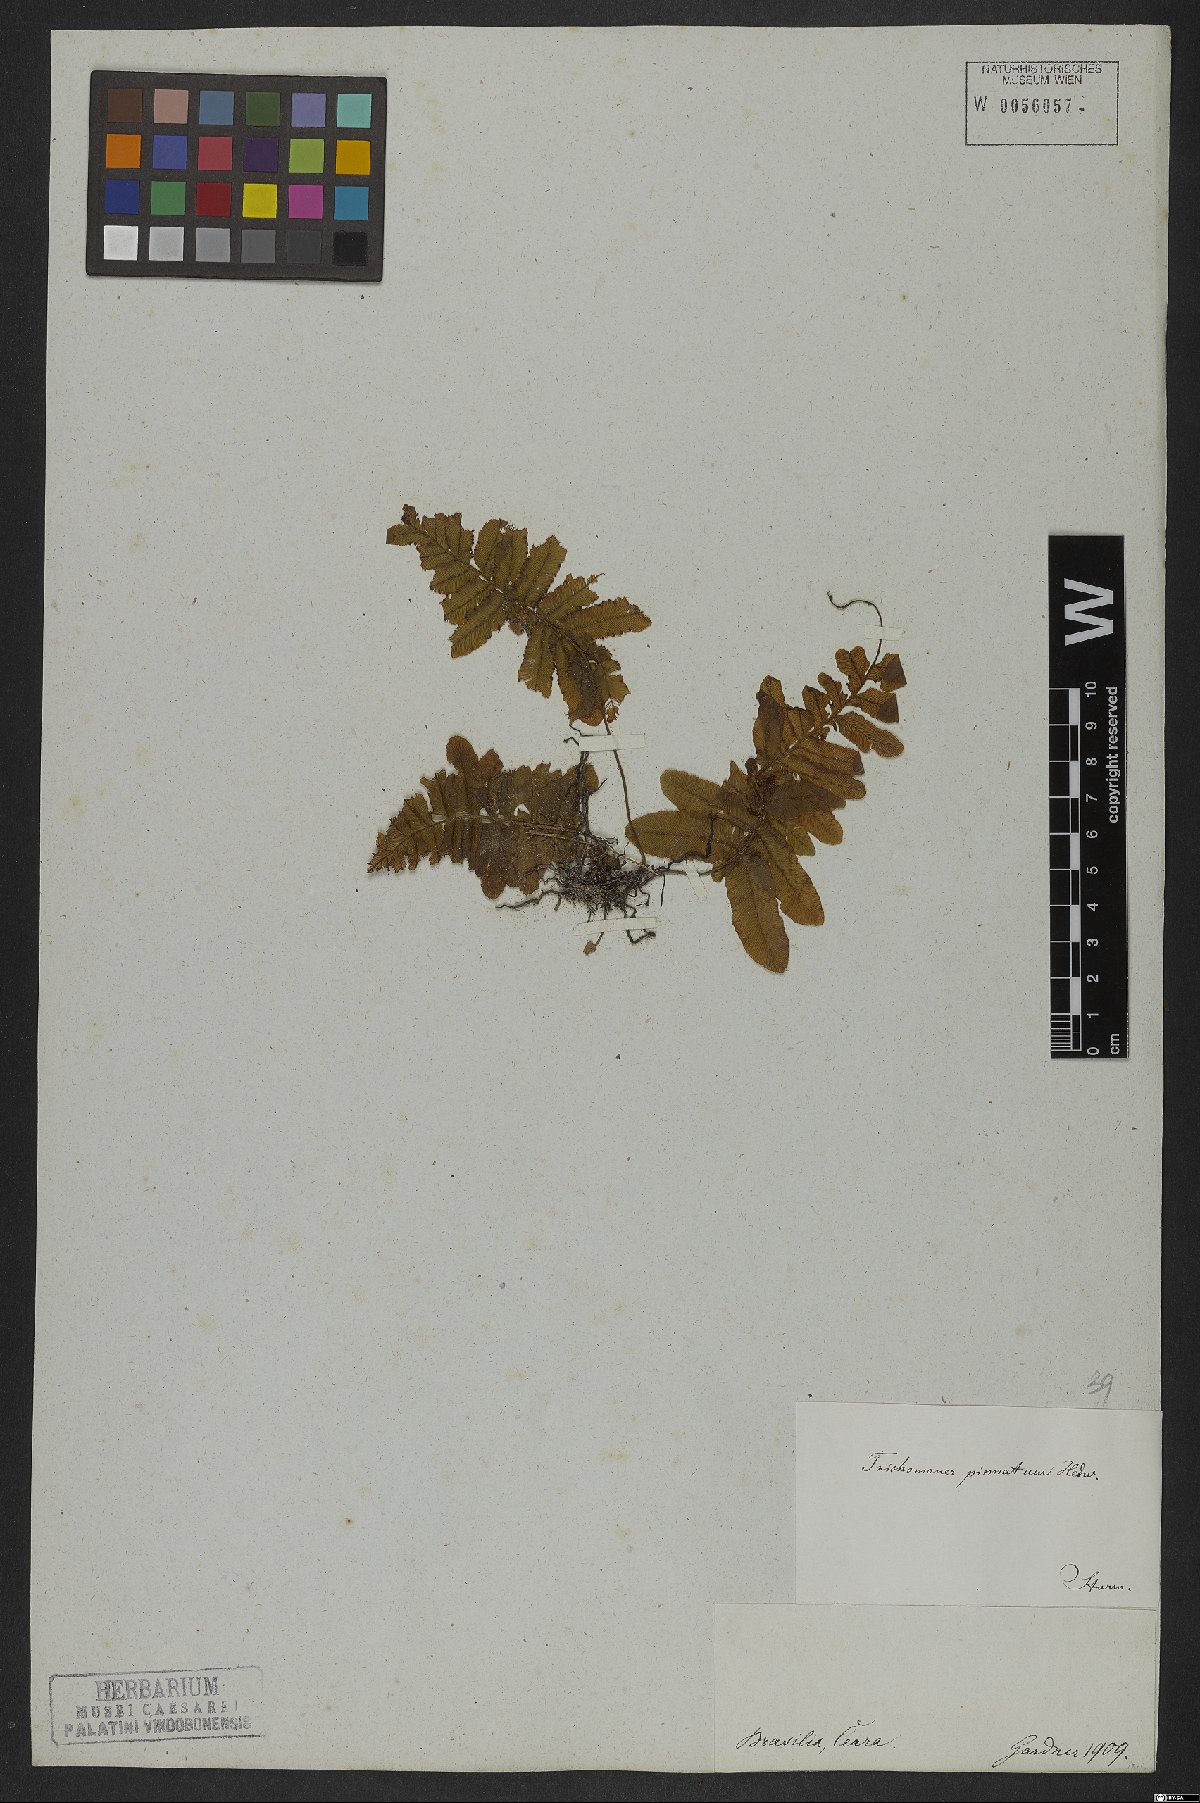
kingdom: Plantae
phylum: Tracheophyta
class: Polypodiopsida
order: Hymenophyllales
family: Hymenophyllaceae
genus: Trichomanes
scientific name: Trichomanes pinnatum
